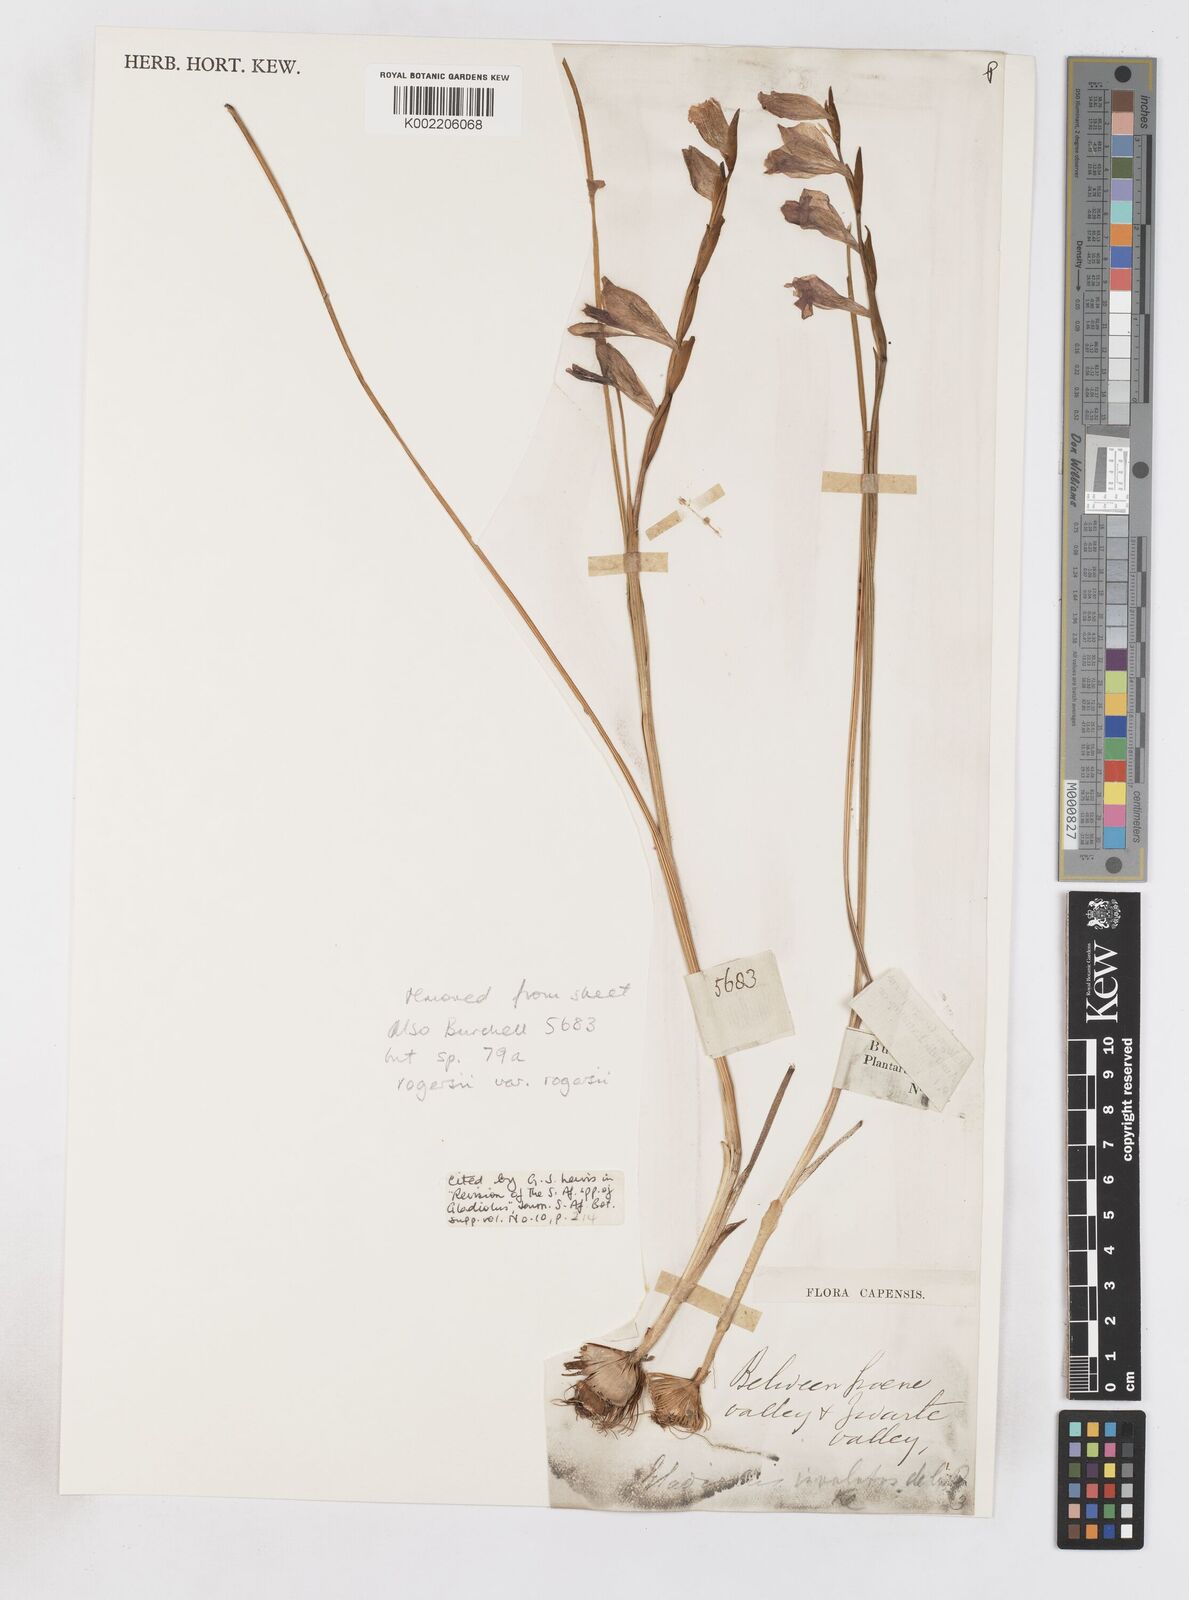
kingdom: Plantae
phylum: Tracheophyta
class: Liliopsida
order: Asparagales
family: Iridaceae
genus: Gladiolus
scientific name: Gladiolus carinatus
